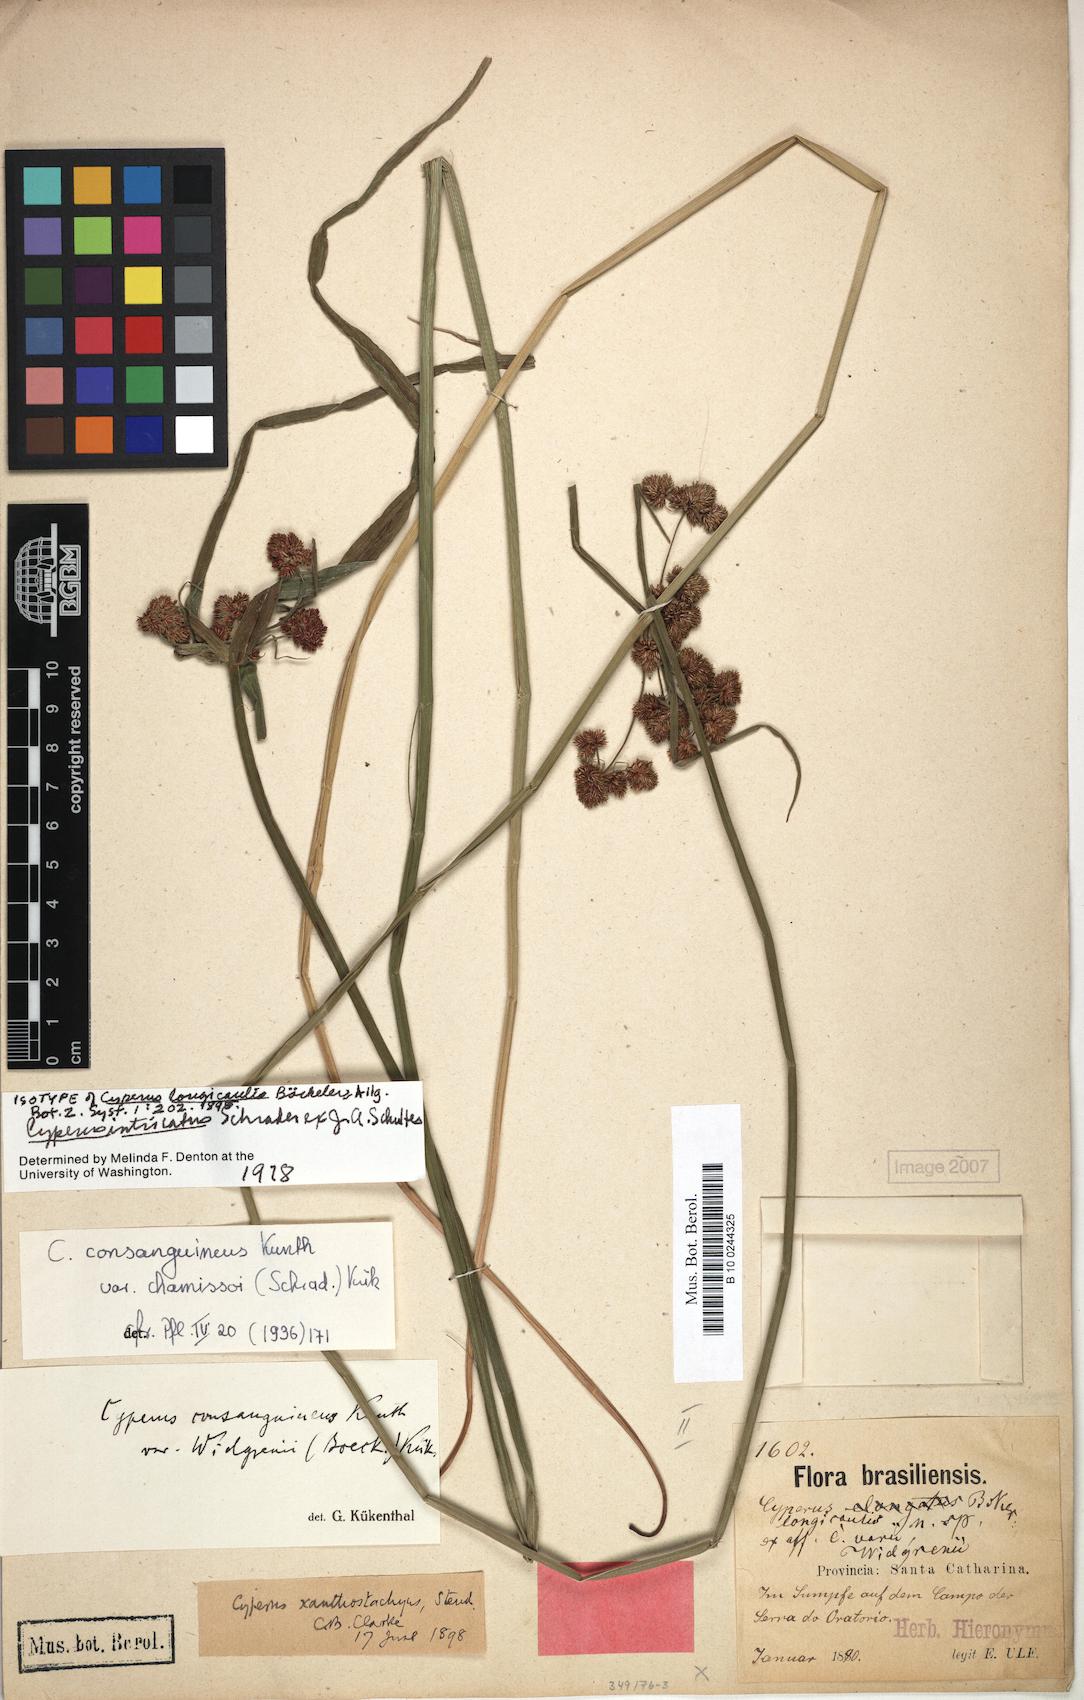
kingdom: Plantae
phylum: Tracheophyta
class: Liliopsida
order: Poales
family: Cyperaceae
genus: Cyperus
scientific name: Cyperus intricatus
